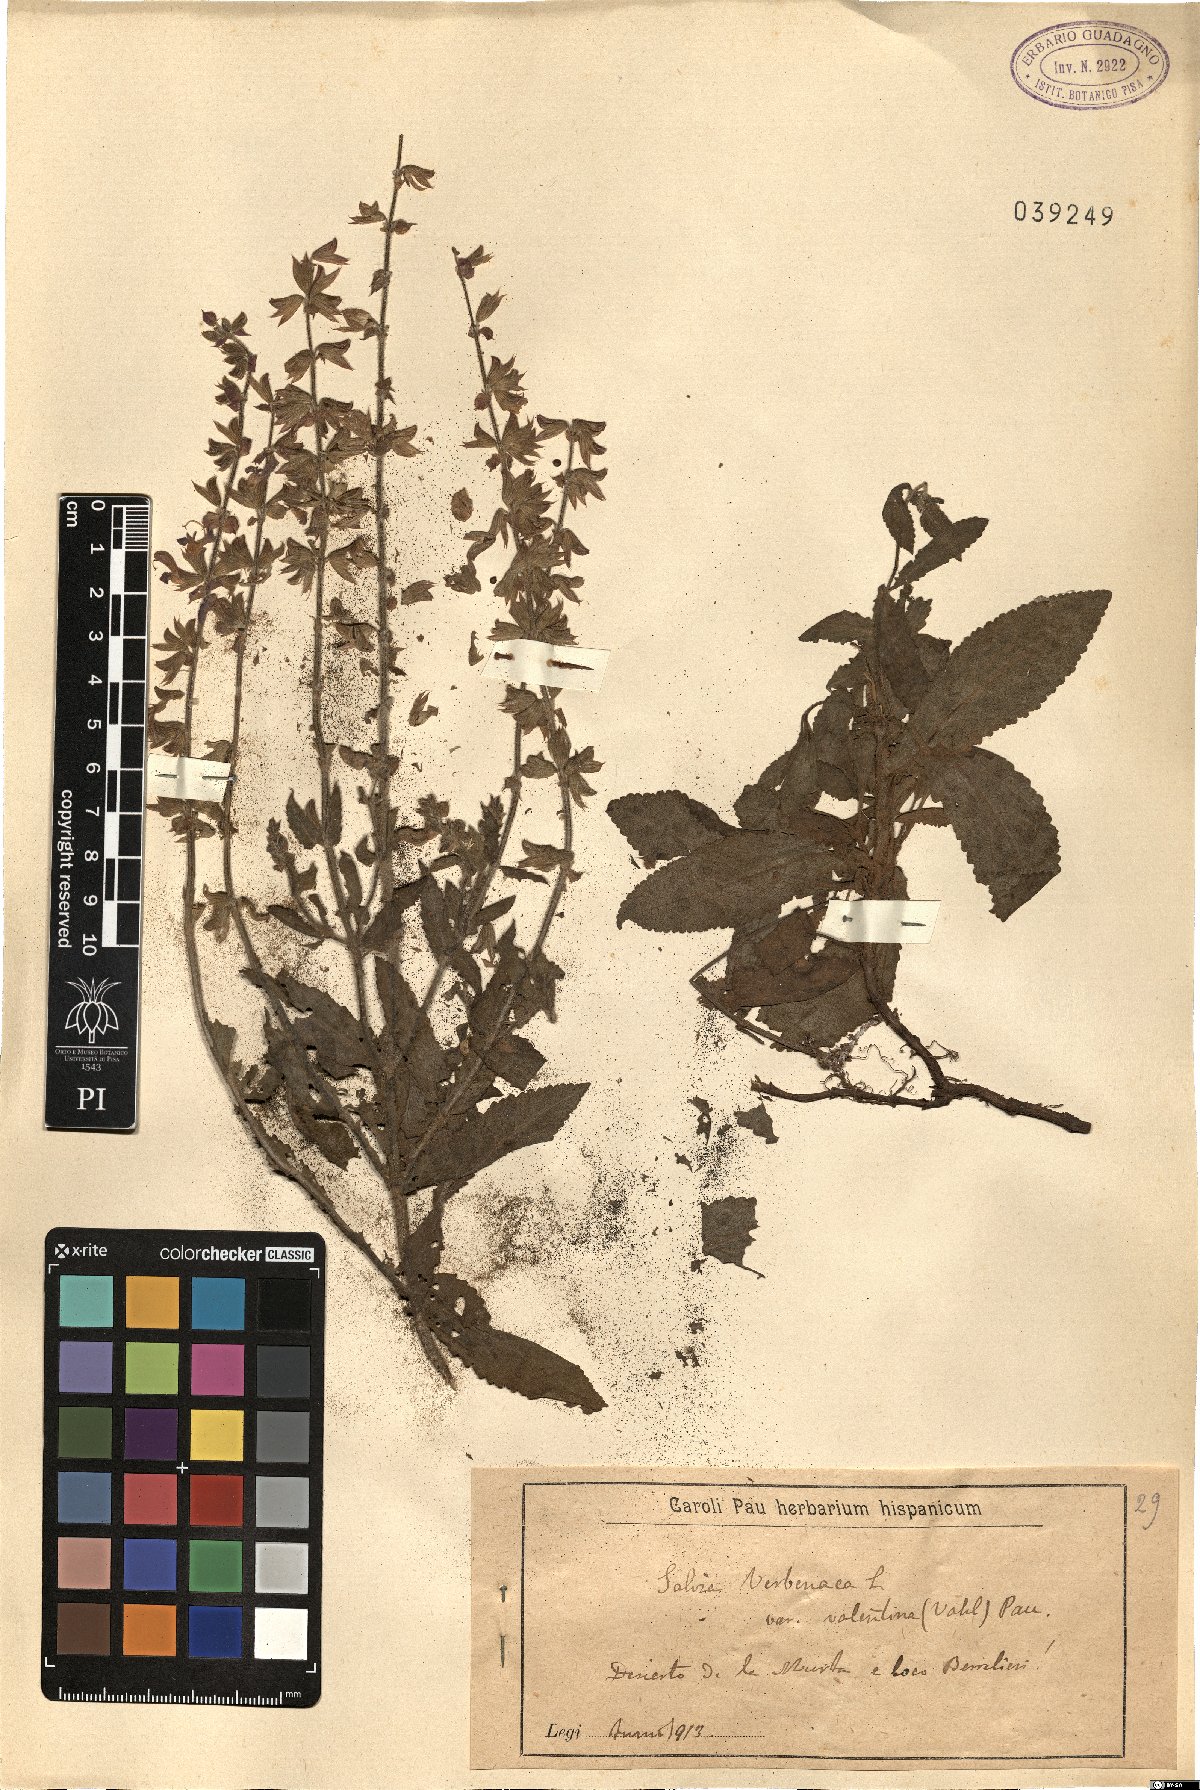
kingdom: Plantae
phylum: Tracheophyta
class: Magnoliopsida
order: Lamiales
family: Lamiaceae
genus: Salvia
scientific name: Salvia verbenaca
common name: Wild clary
